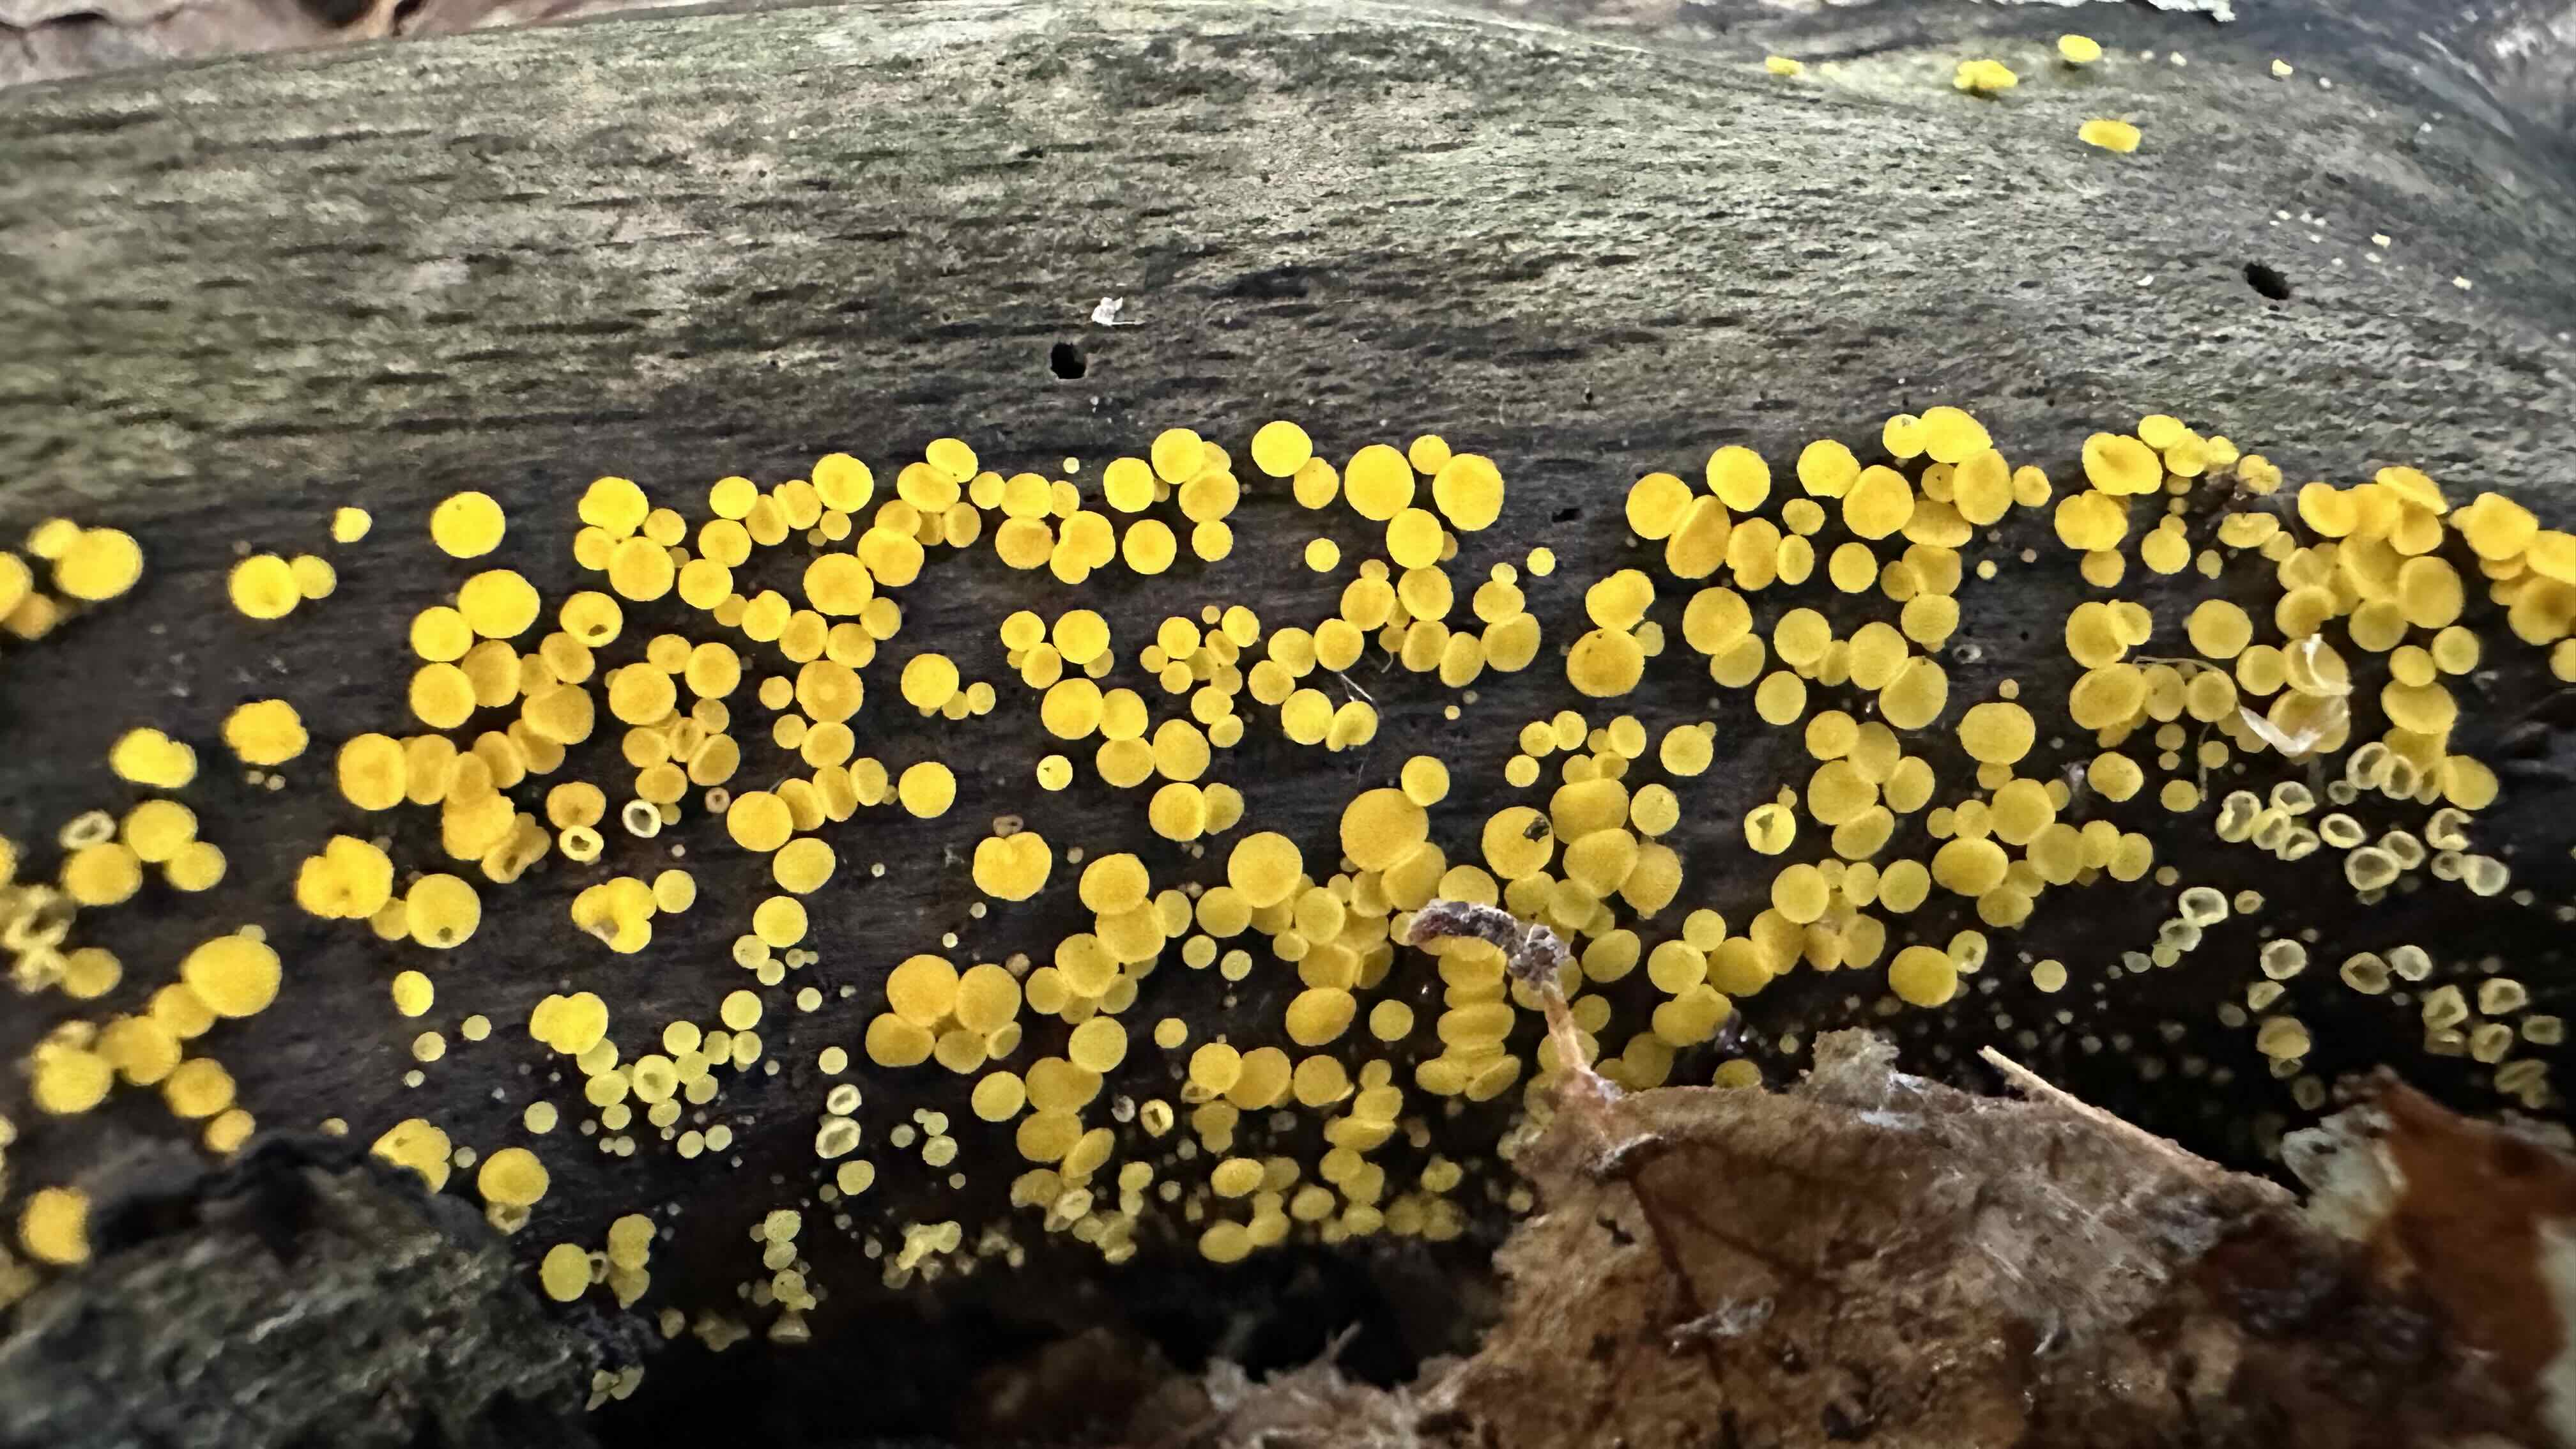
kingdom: Fungi
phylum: Ascomycota
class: Leotiomycetes
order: Helotiales
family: Pezizellaceae
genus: Calycina
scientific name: Calycina citrina
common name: almindelig gulskive
